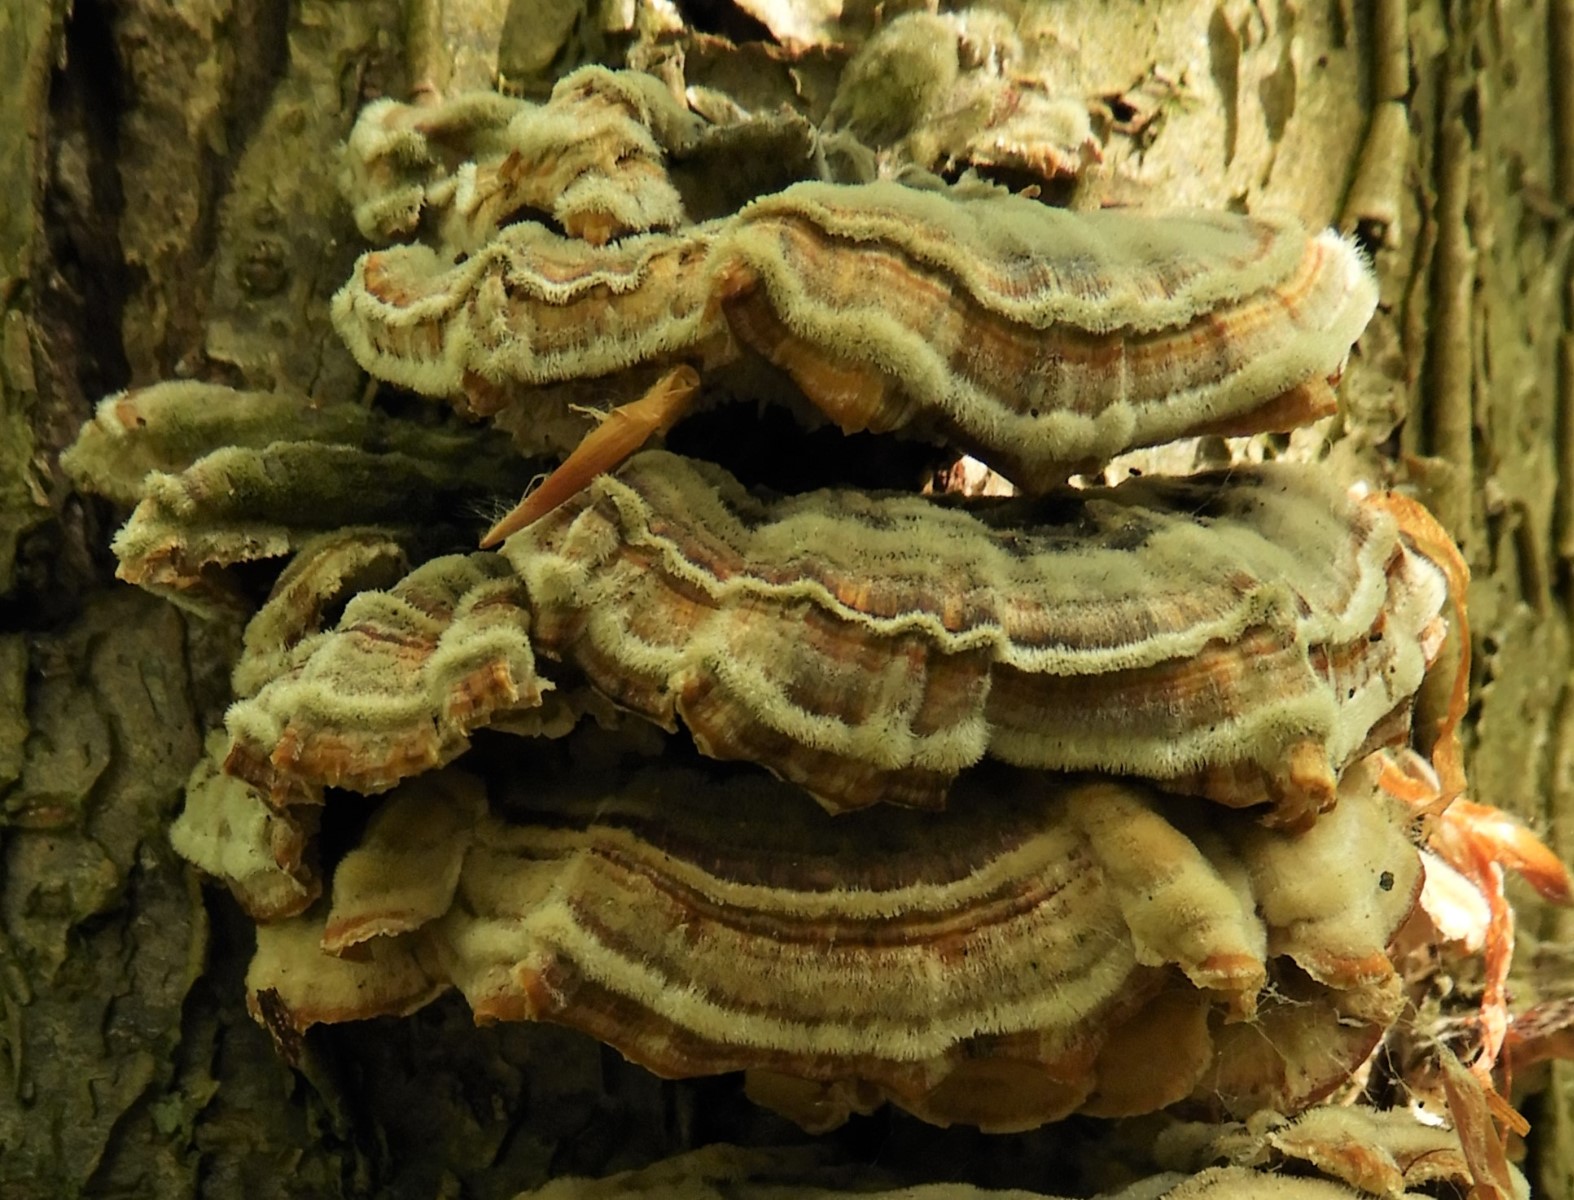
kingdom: Fungi
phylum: Basidiomycota
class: Agaricomycetes
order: Polyporales
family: Polyporaceae
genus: Trametes
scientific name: Trametes versicolor
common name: broget læderporesvamp
